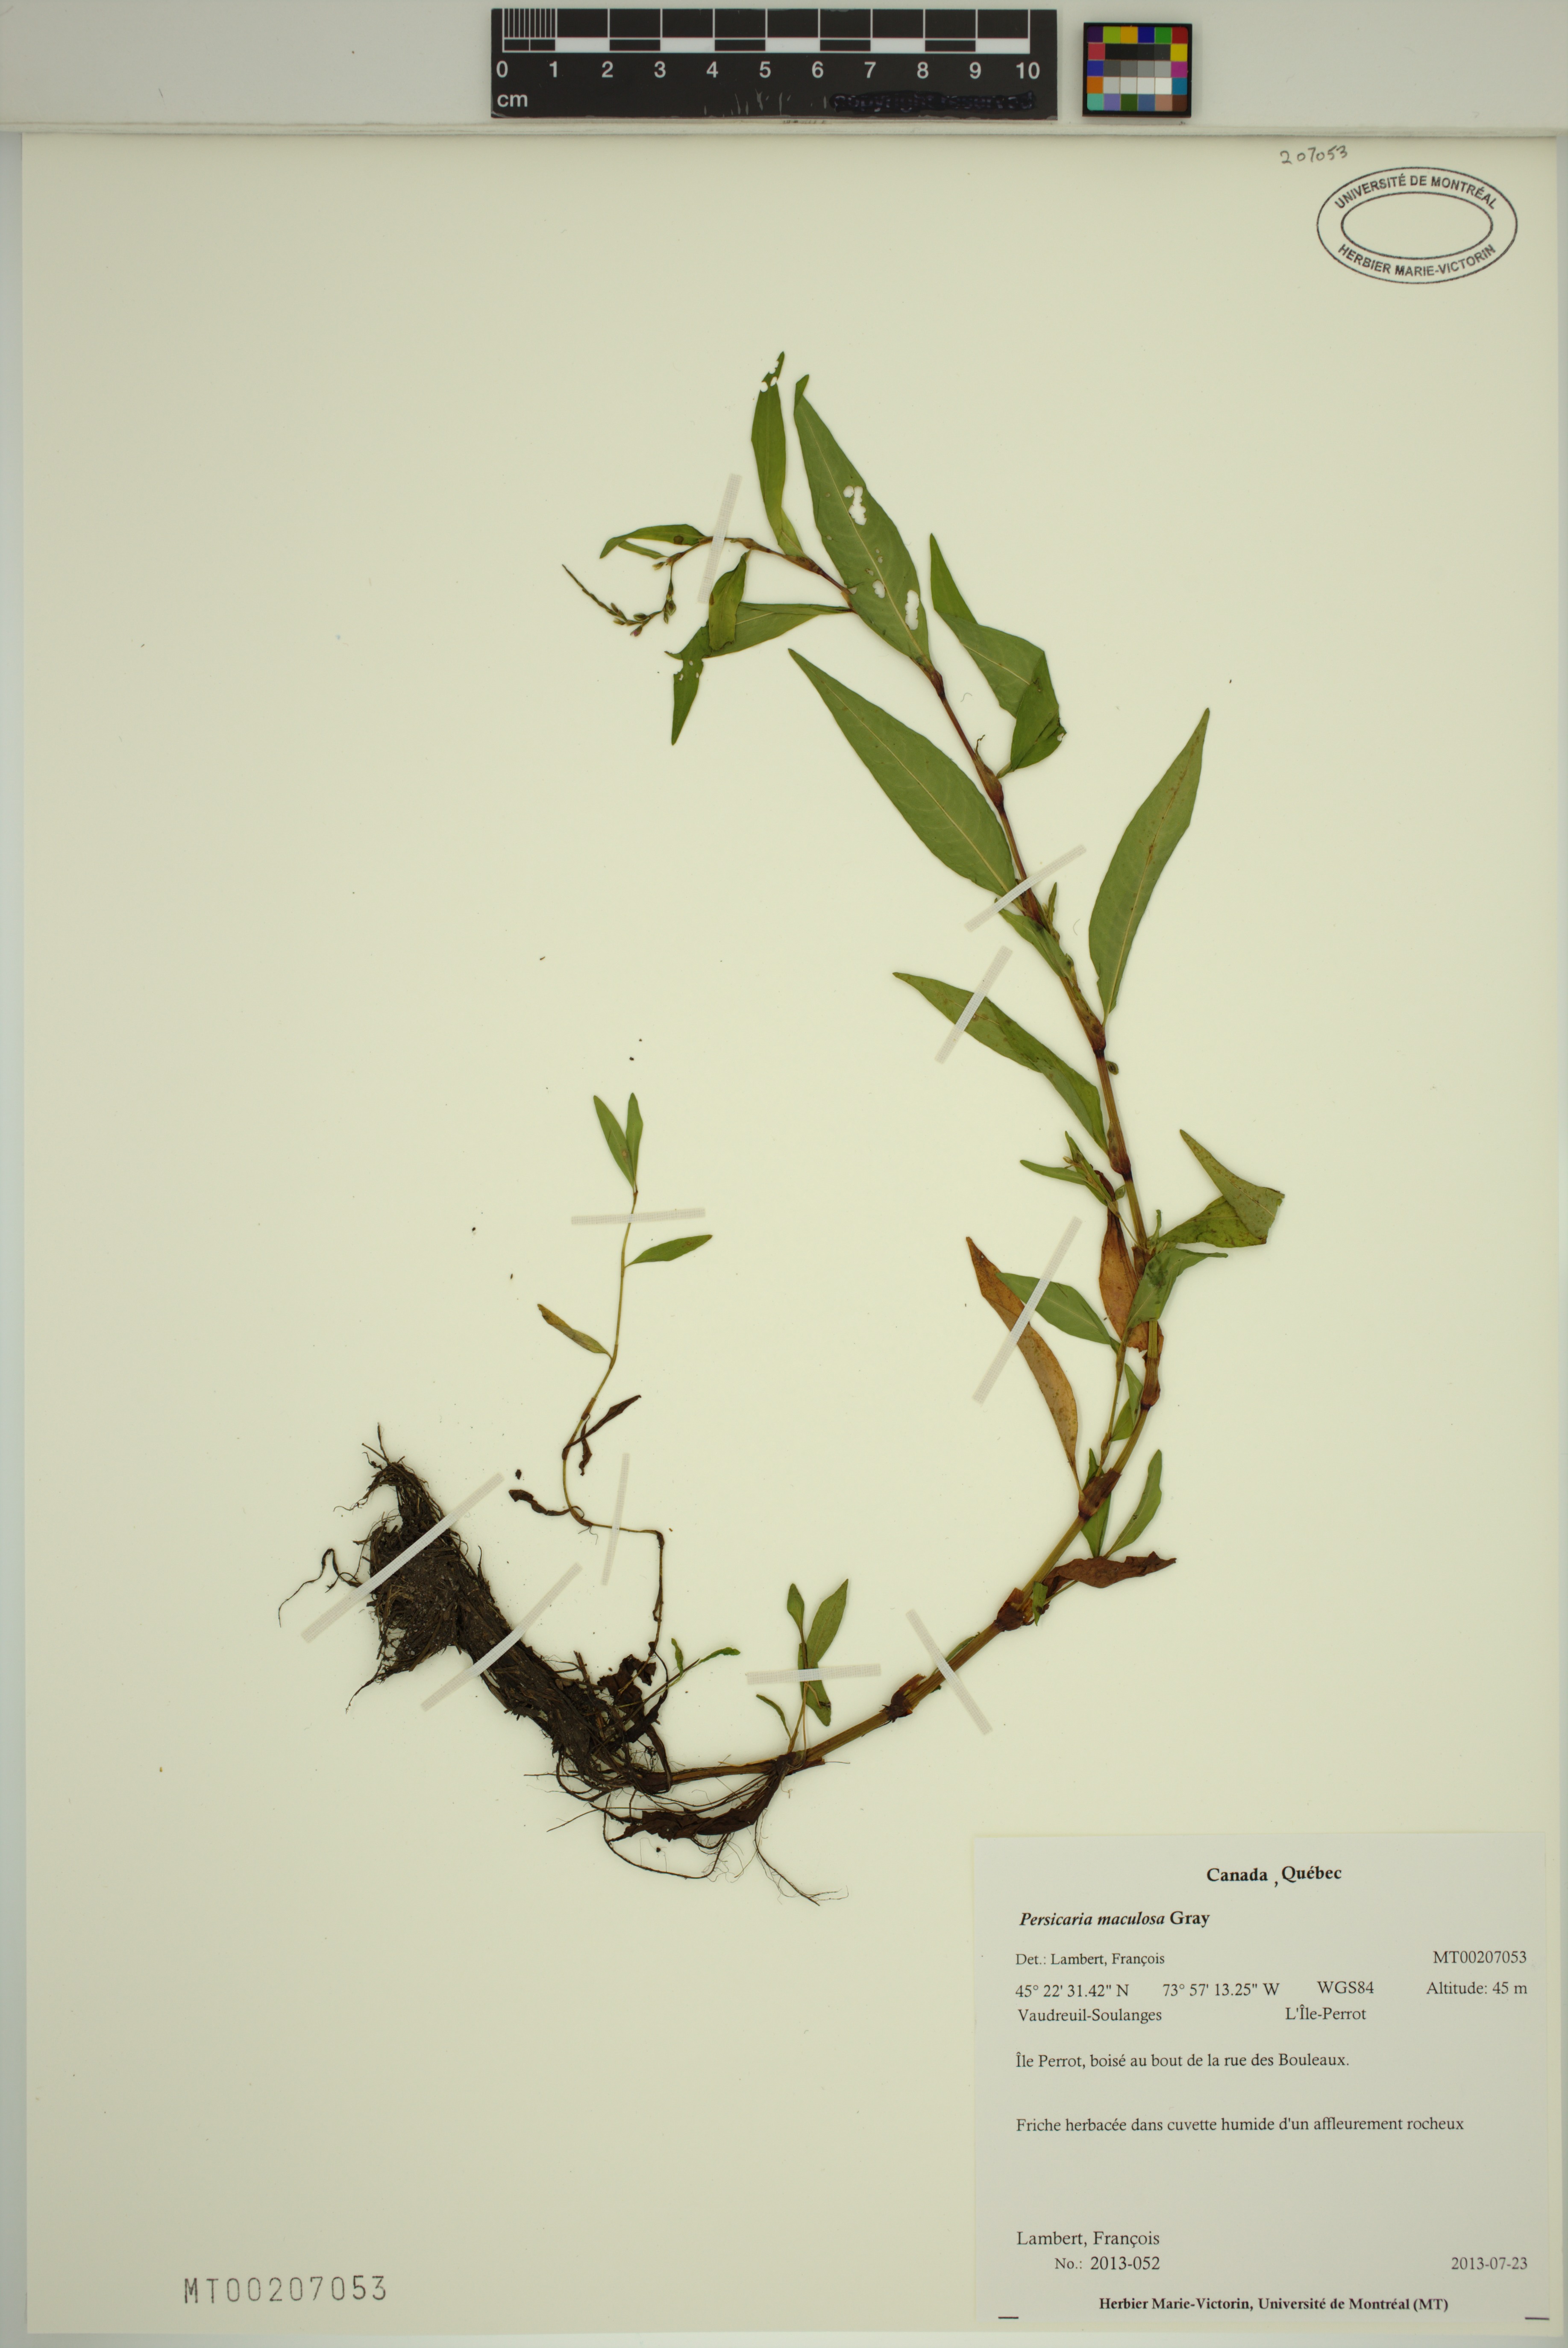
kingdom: Plantae
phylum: Tracheophyta
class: Magnoliopsida
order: Caryophyllales
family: Polygonaceae
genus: Persicaria
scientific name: Persicaria maculosa
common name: Redshank
